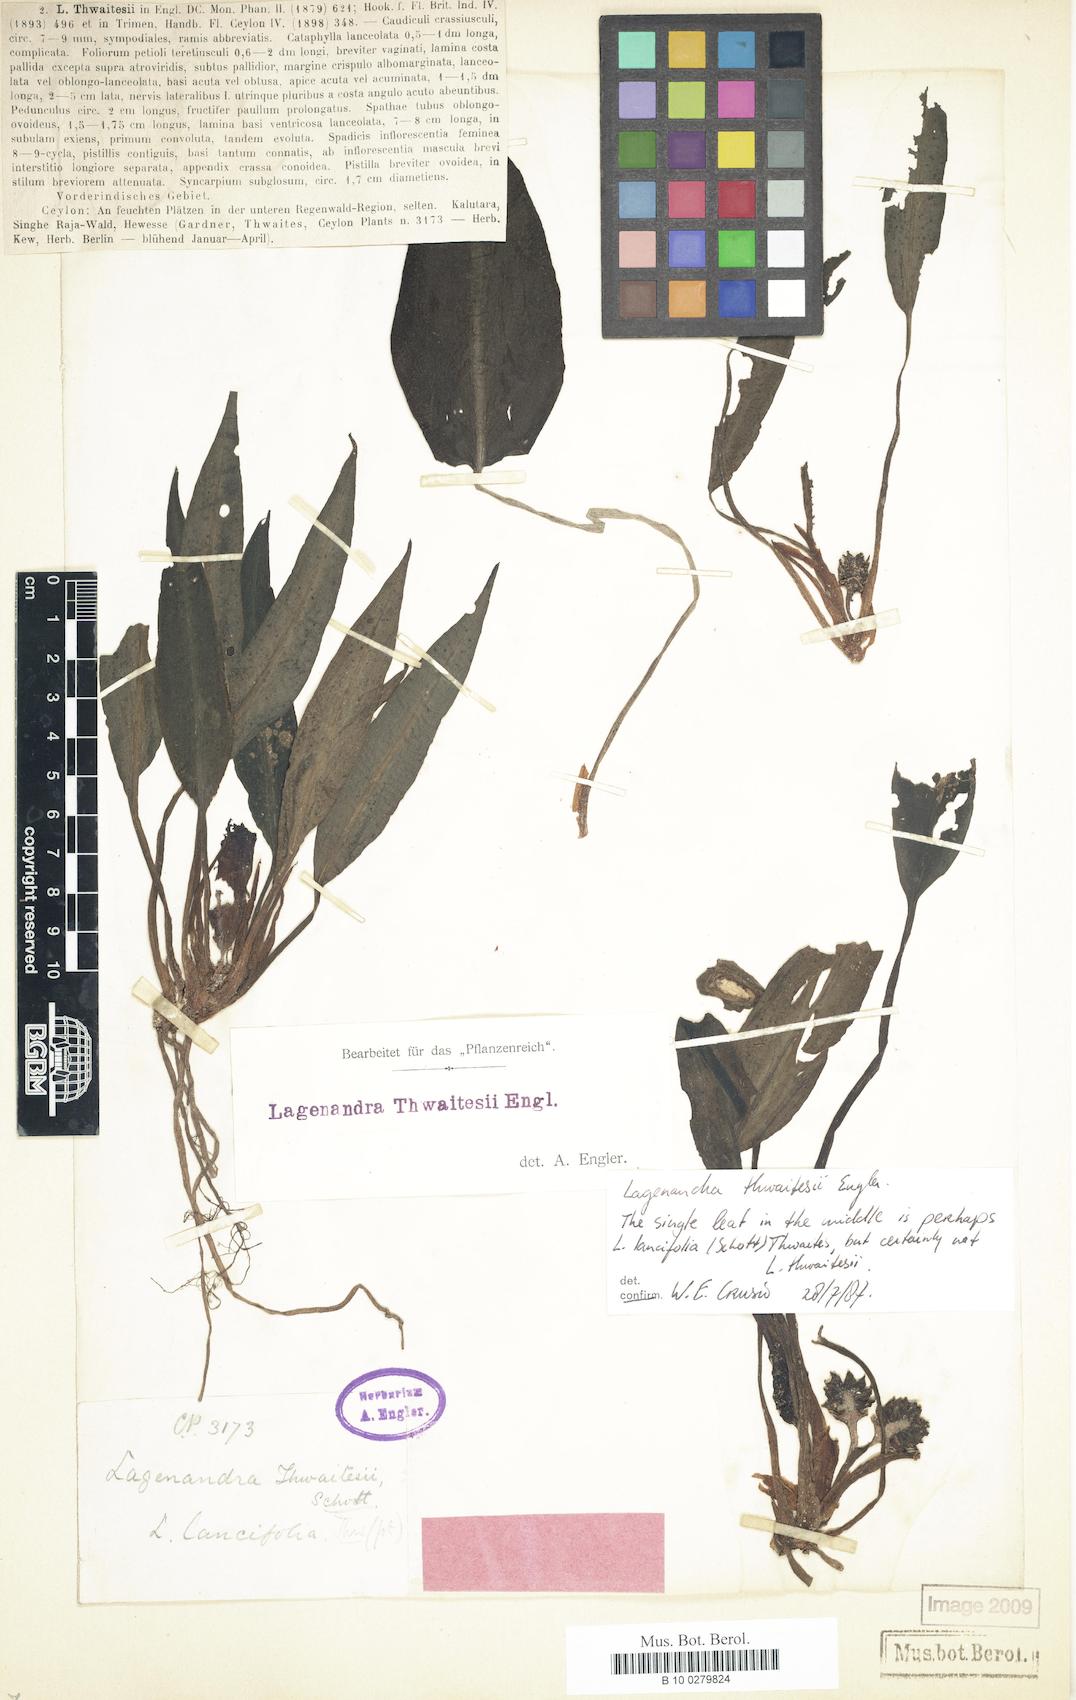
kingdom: Plantae
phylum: Tracheophyta
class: Liliopsida
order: Alismatales
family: Araceae
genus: Lagenandra
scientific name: Lagenandra thwaitesii
